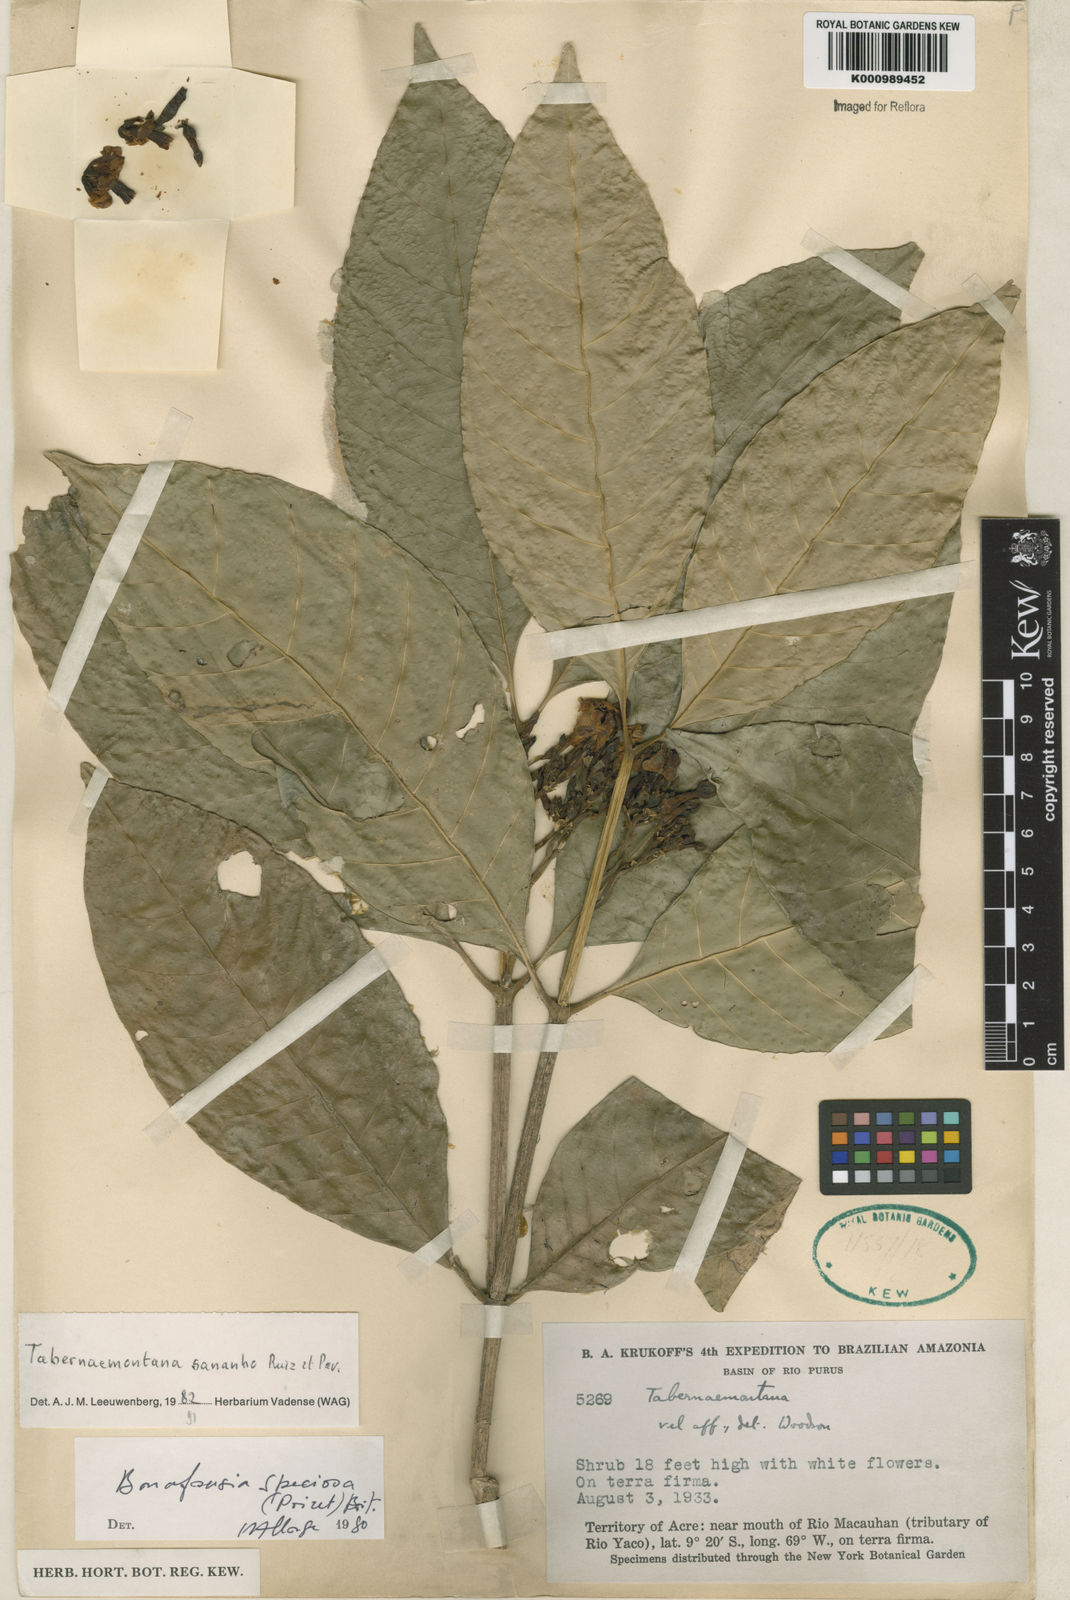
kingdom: Plantae
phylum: Tracheophyta
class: Magnoliopsida
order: Gentianales
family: Apocynaceae
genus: Tabernaemontana
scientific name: Tabernaemontana sananho
